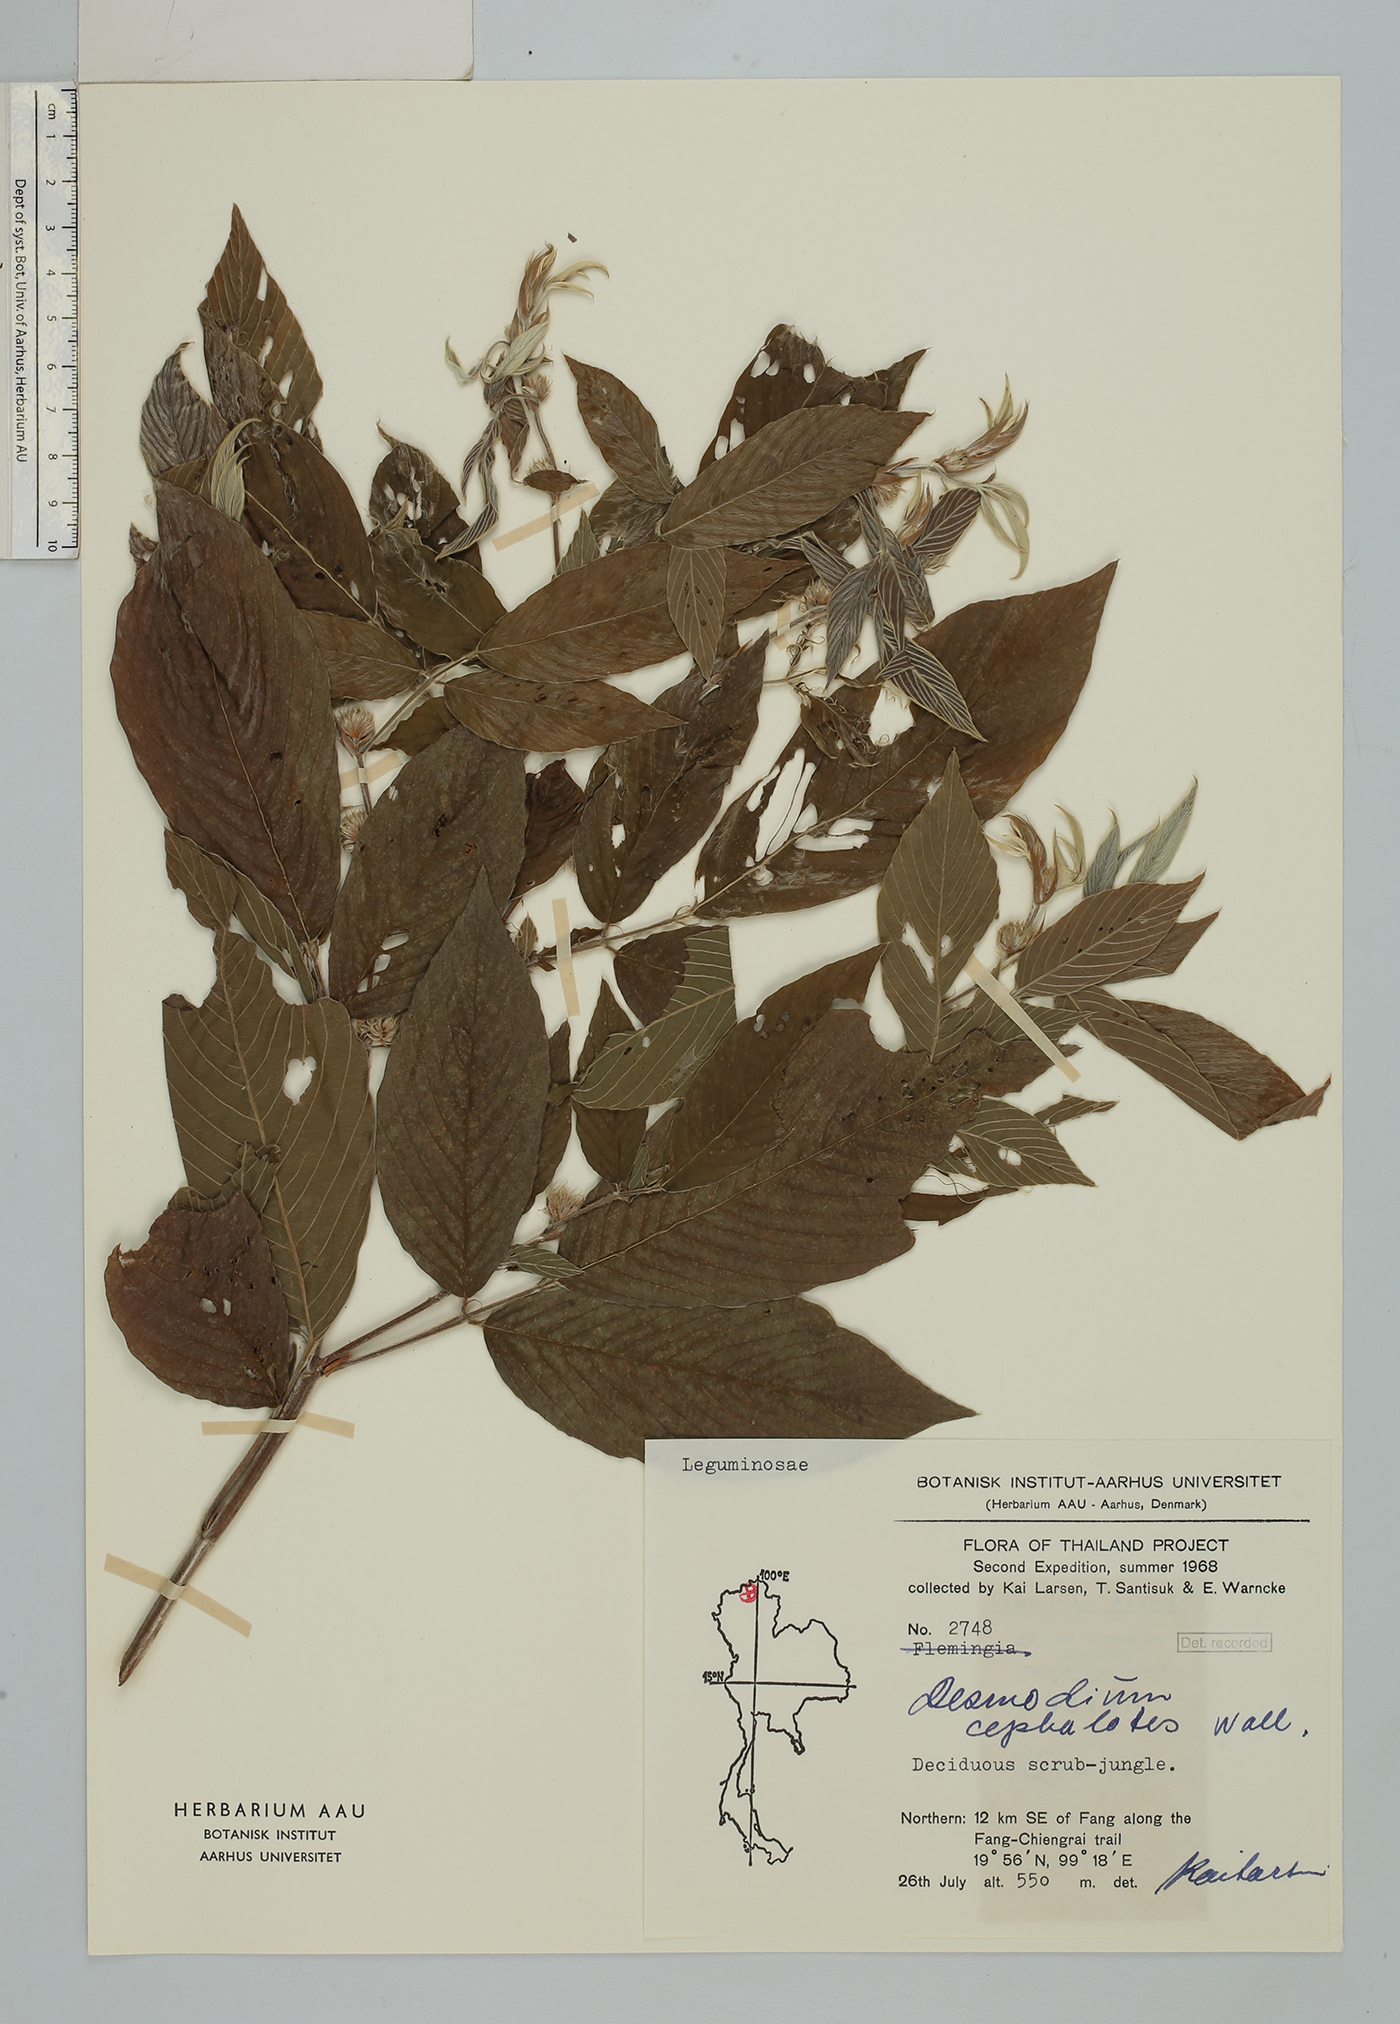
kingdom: Plantae
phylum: Tracheophyta
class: Magnoliopsida
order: Fabales
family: Fabaceae
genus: Dendrolobium
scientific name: Dendrolobium triangulare
